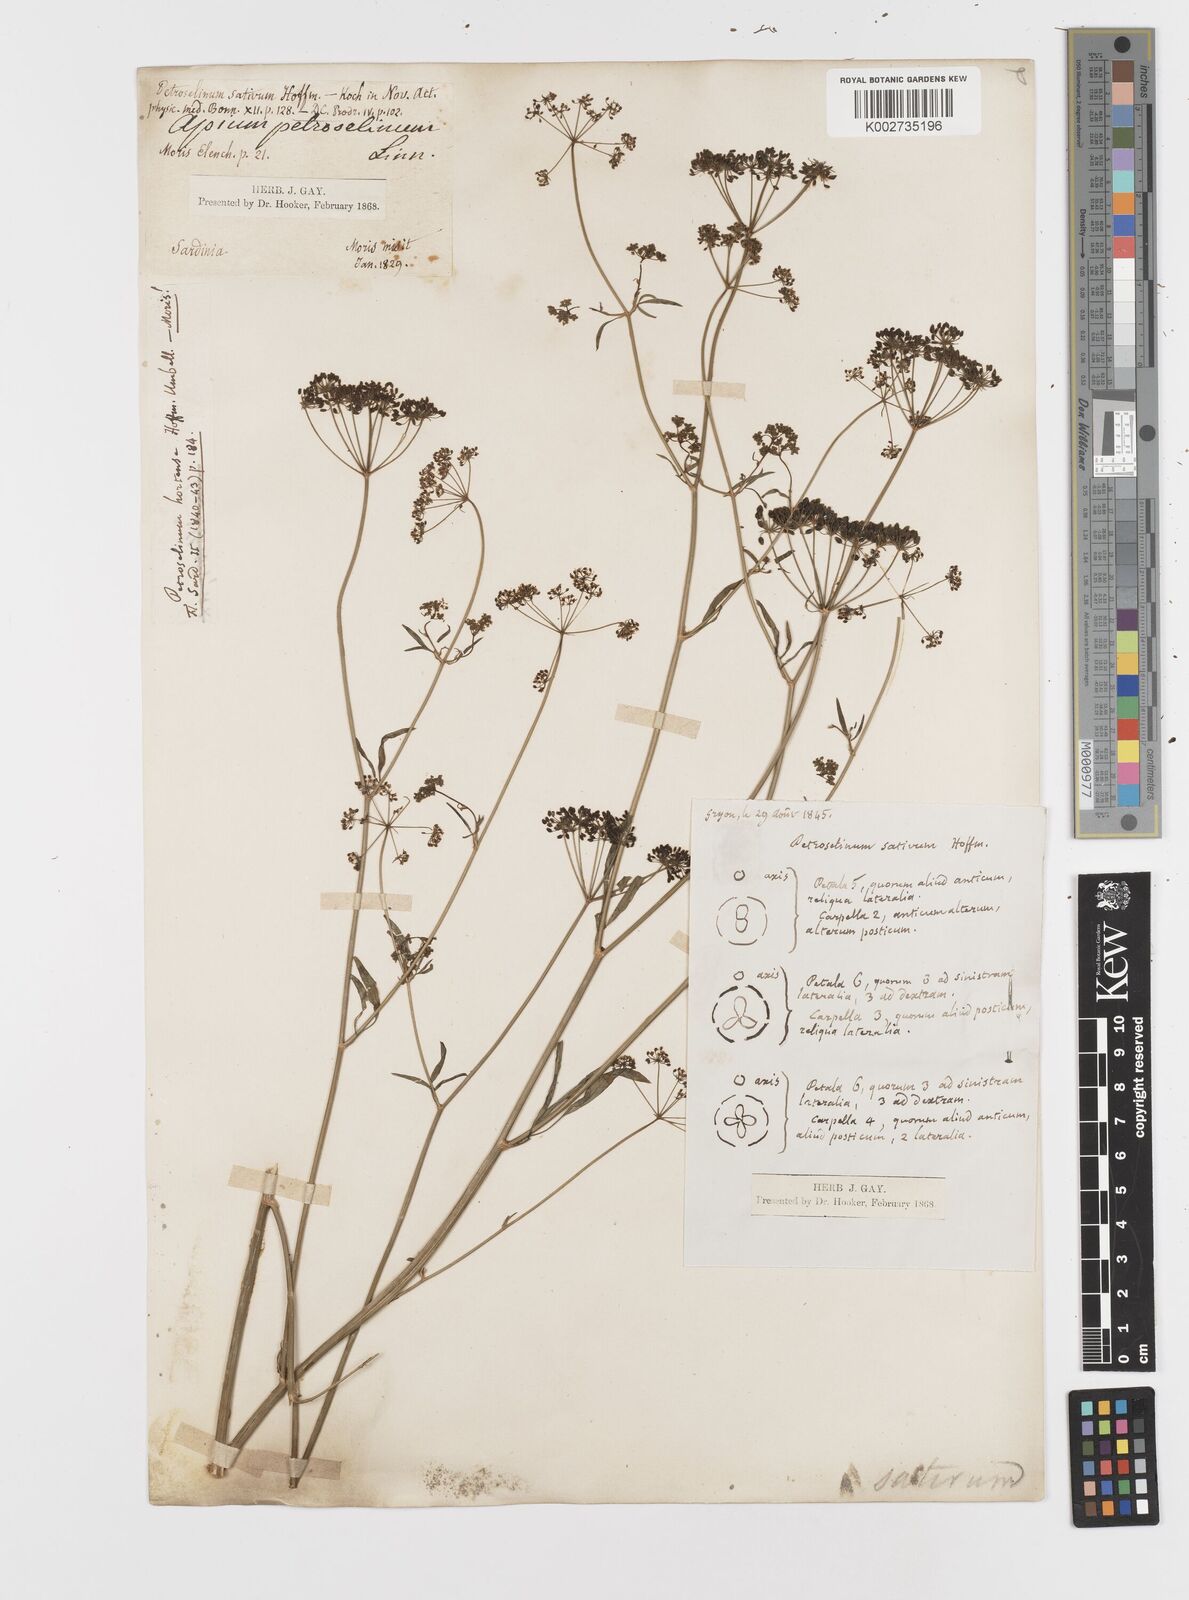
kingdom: Plantae
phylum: Tracheophyta
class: Magnoliopsida
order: Apiales
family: Apiaceae
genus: Petroselinum
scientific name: Petroselinum crispum
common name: Parsley
